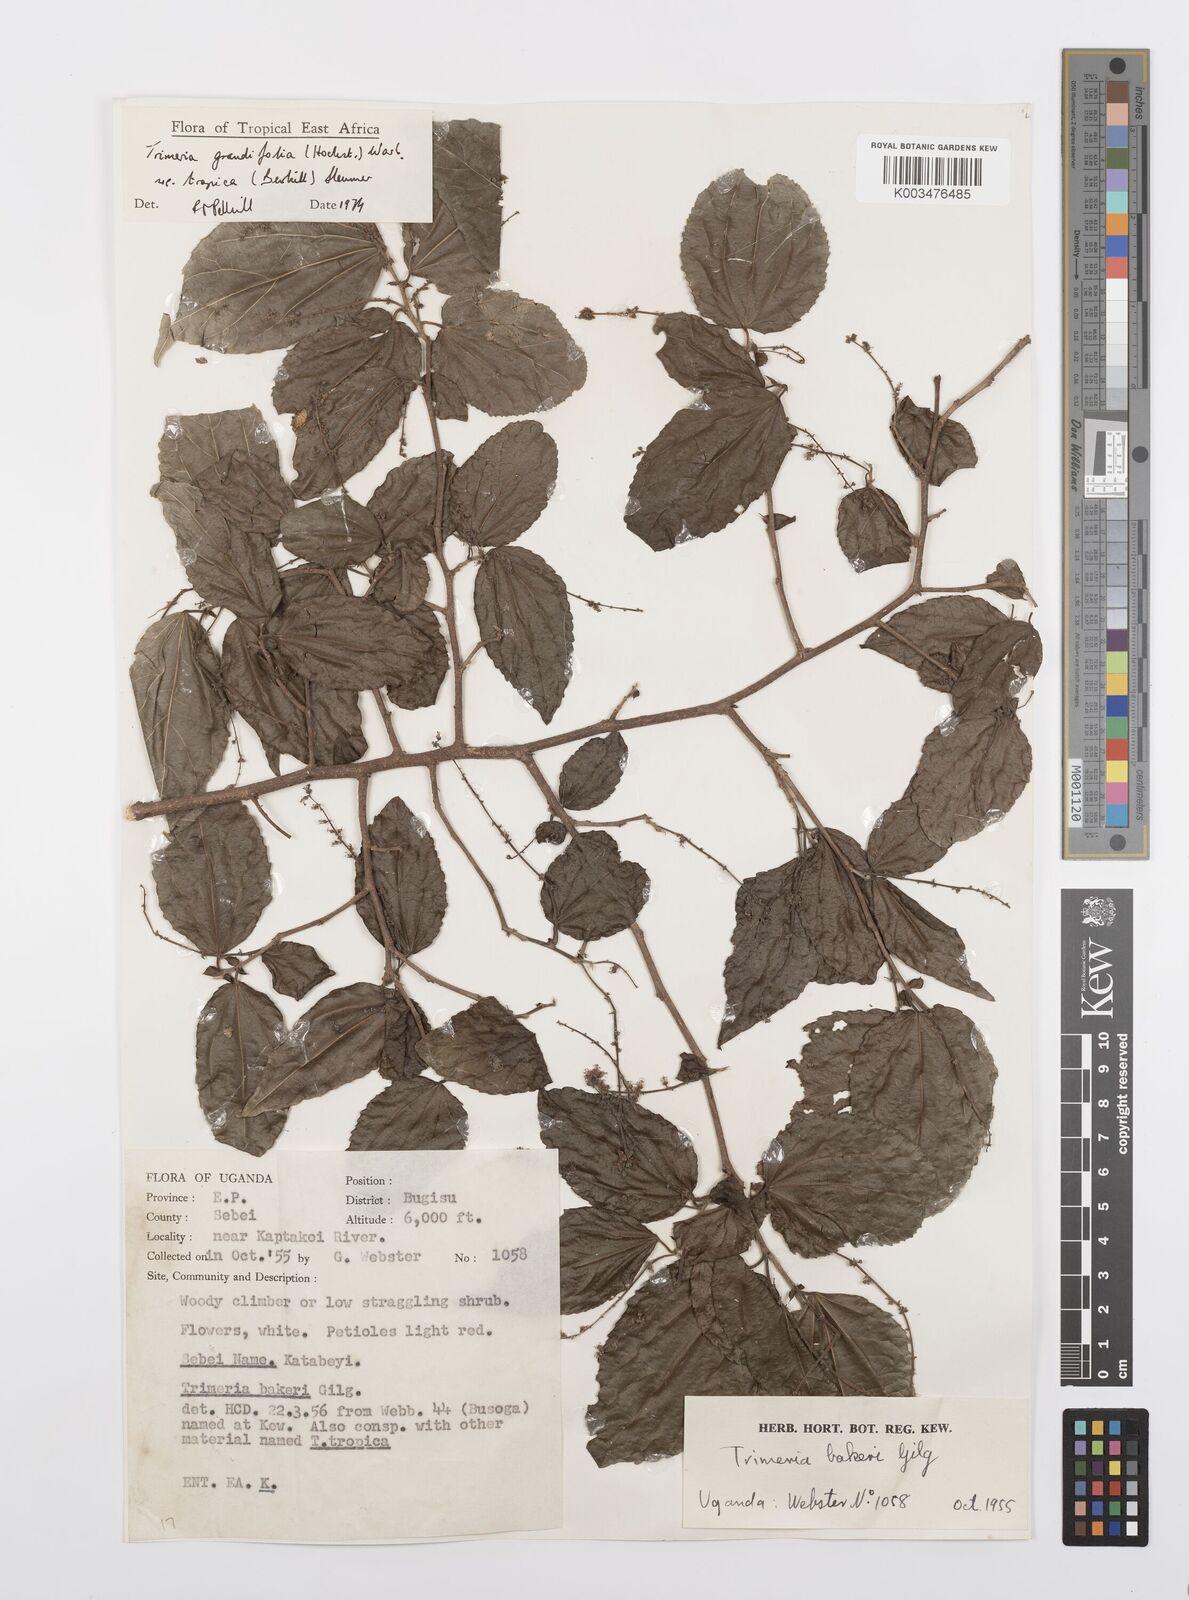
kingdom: Plantae
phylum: Tracheophyta
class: Magnoliopsida
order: Malpighiales
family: Salicaceae
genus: Trimeria
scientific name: Trimeria grandifolia
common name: Wild mulberry
